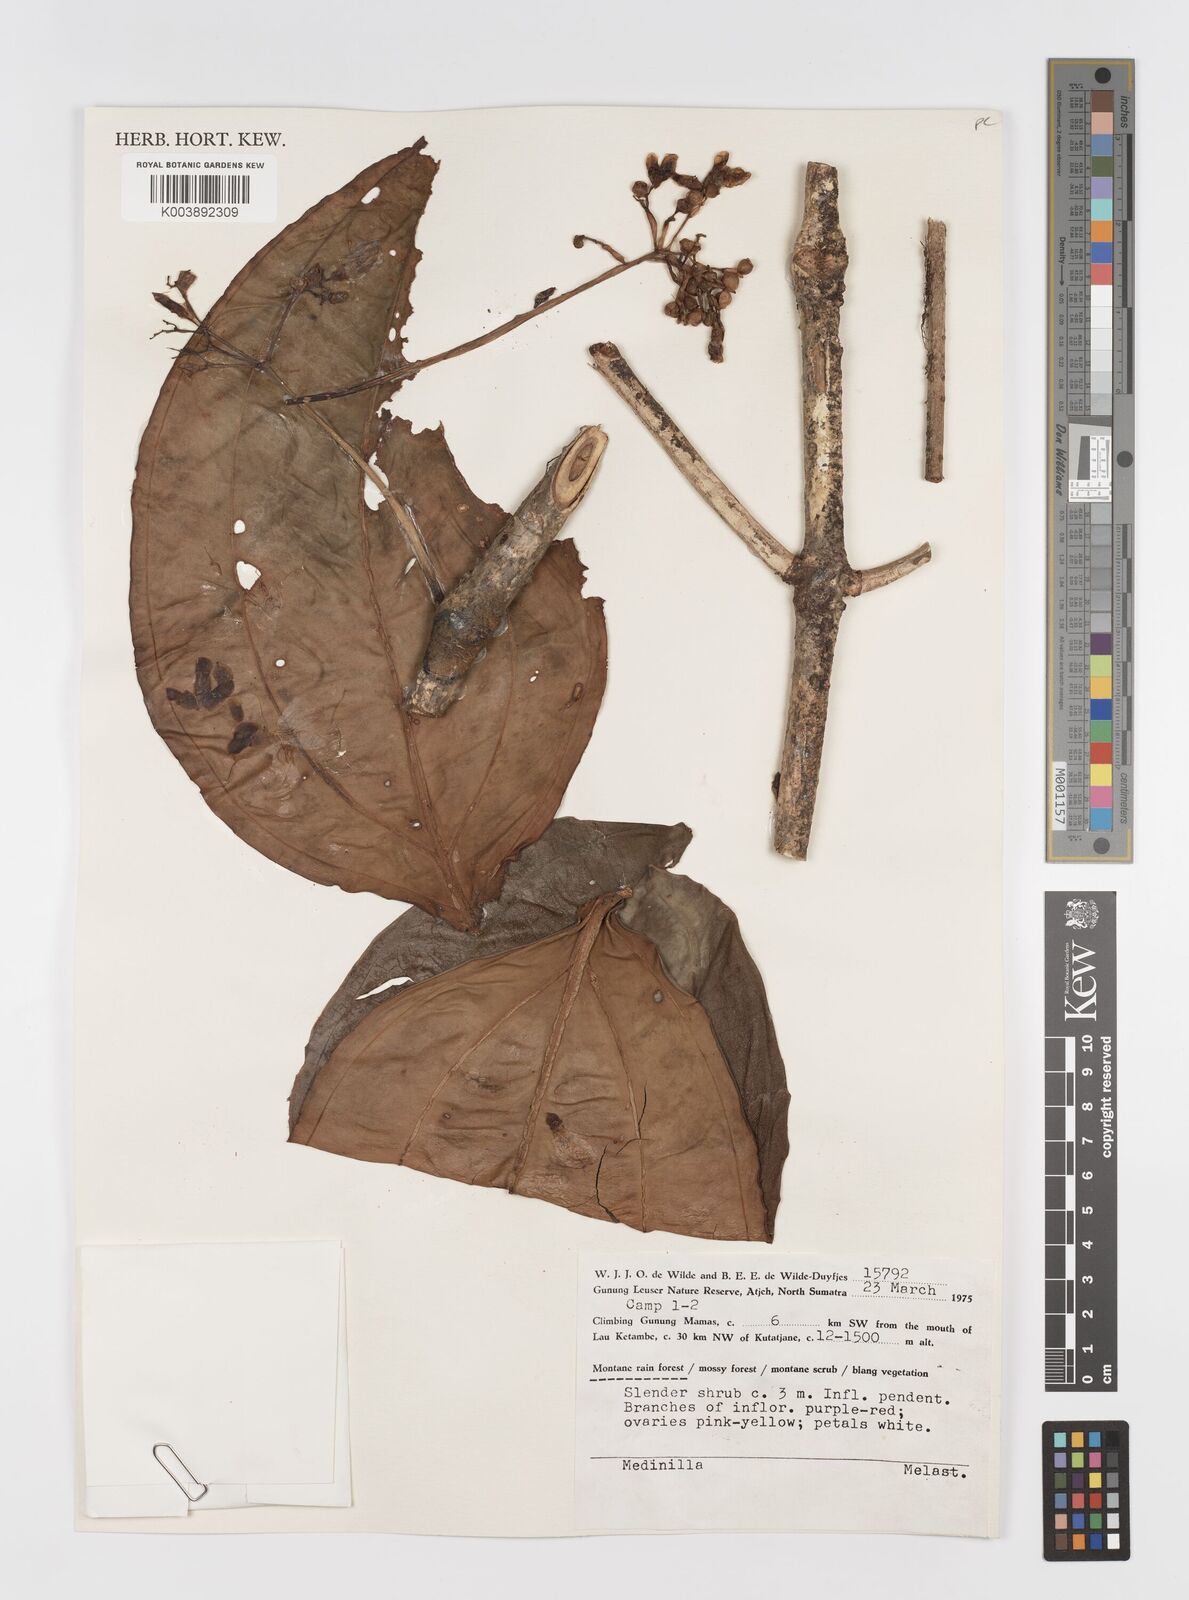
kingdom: Plantae
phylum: Tracheophyta
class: Magnoliopsida
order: Myrtales
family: Melastomataceae
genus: Medinilla
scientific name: Medinilla
